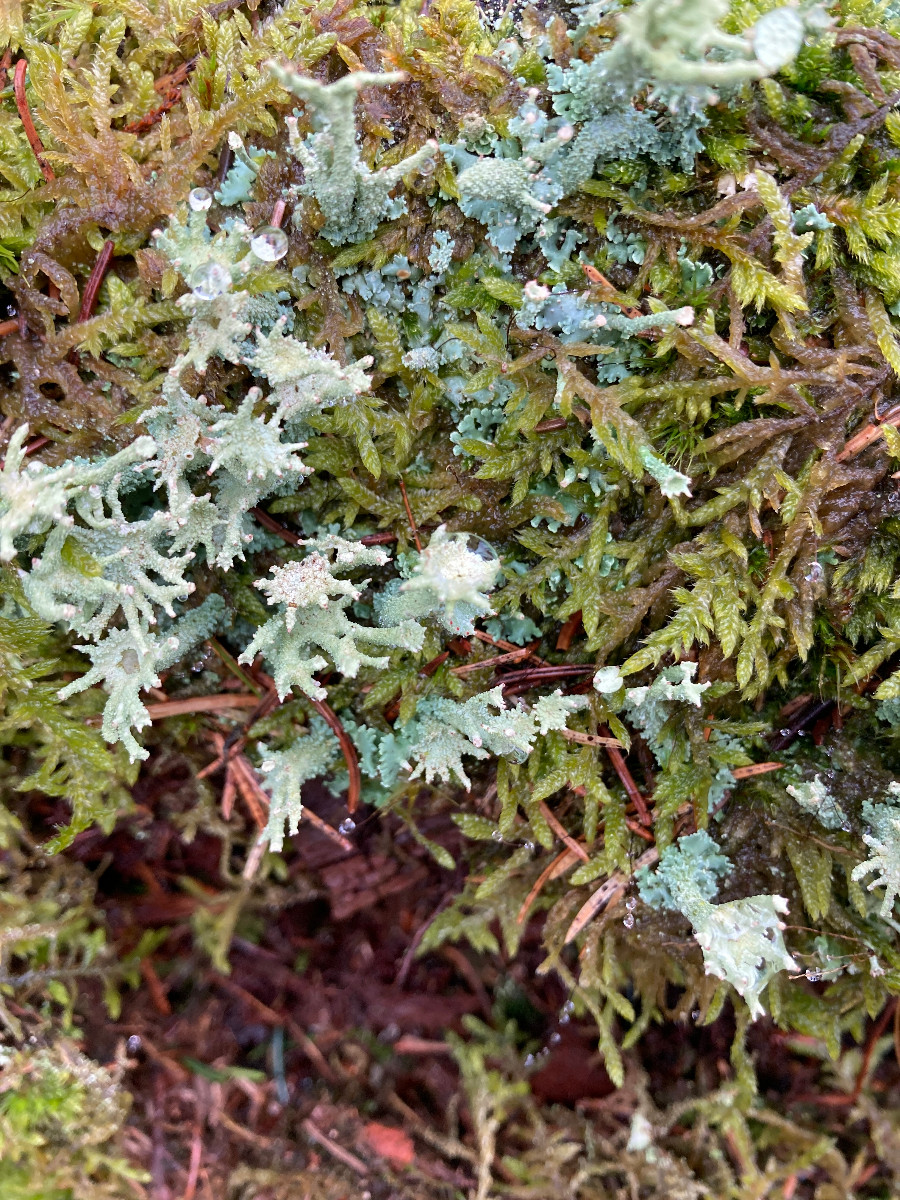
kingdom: Fungi
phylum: Ascomycota
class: Lecanoromycetes
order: Lecanorales
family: Cladoniaceae
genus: Cladonia
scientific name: Cladonia polydactyla
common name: vifte-bægerlav
